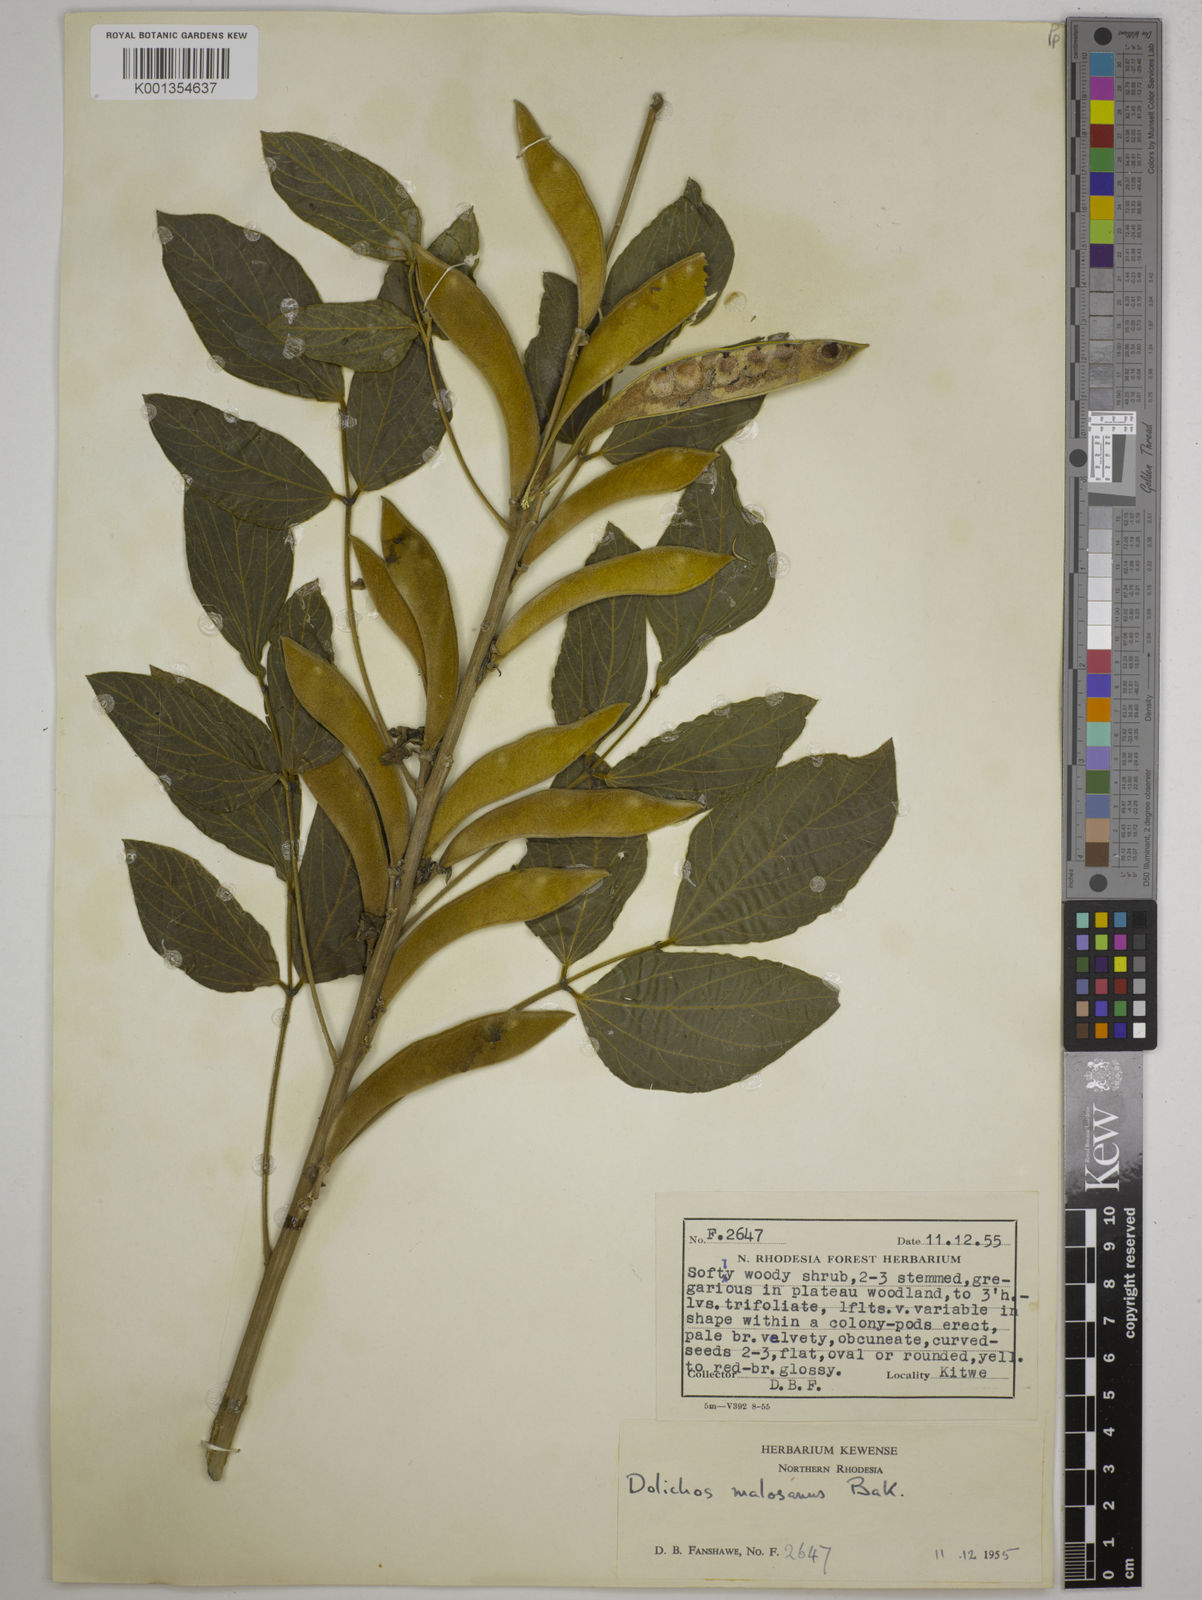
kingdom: Plantae
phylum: Tracheophyta
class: Magnoliopsida
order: Fabales
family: Fabaceae
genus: Dolichos
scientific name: Dolichos kilimandscharicus
